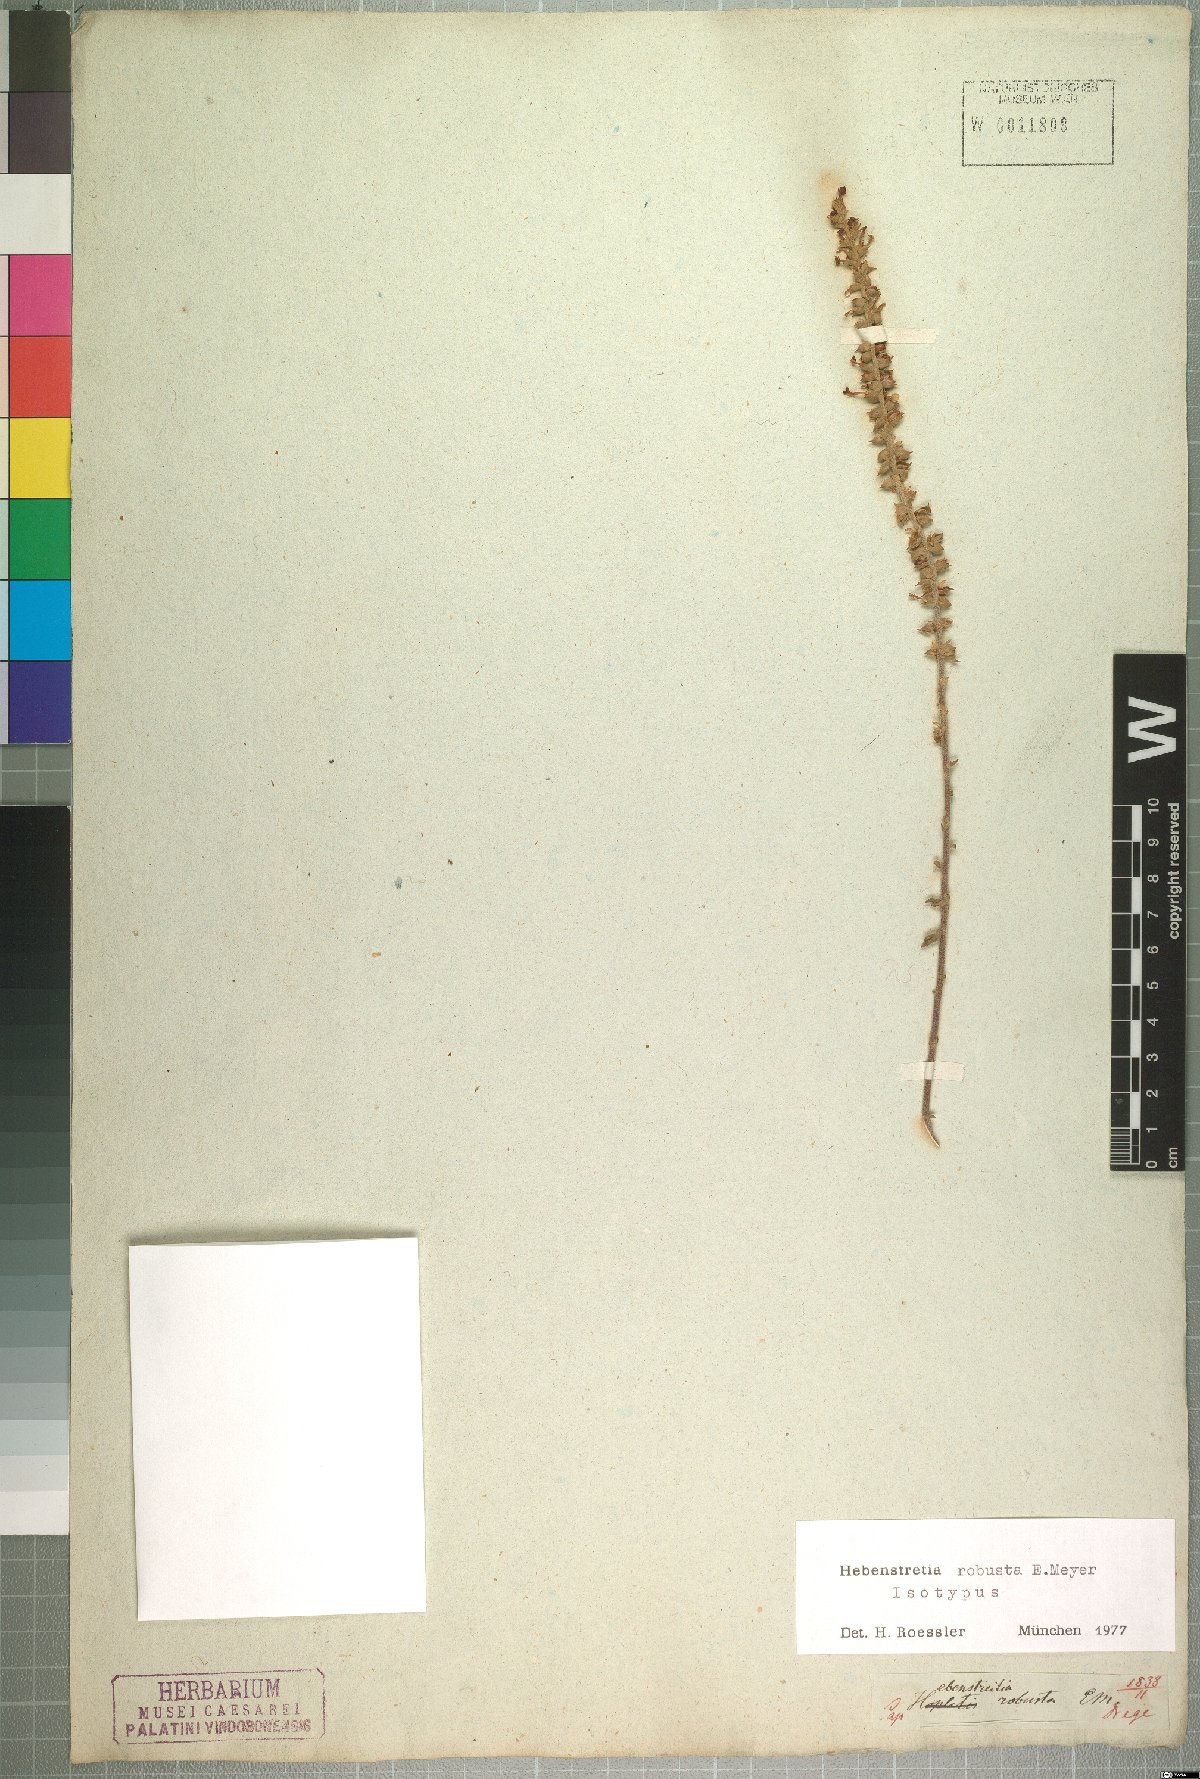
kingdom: Plantae
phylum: Tracheophyta
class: Magnoliopsida
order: Lamiales
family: Scrophulariaceae
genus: Hebenstretia
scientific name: Hebenstretia robusta
